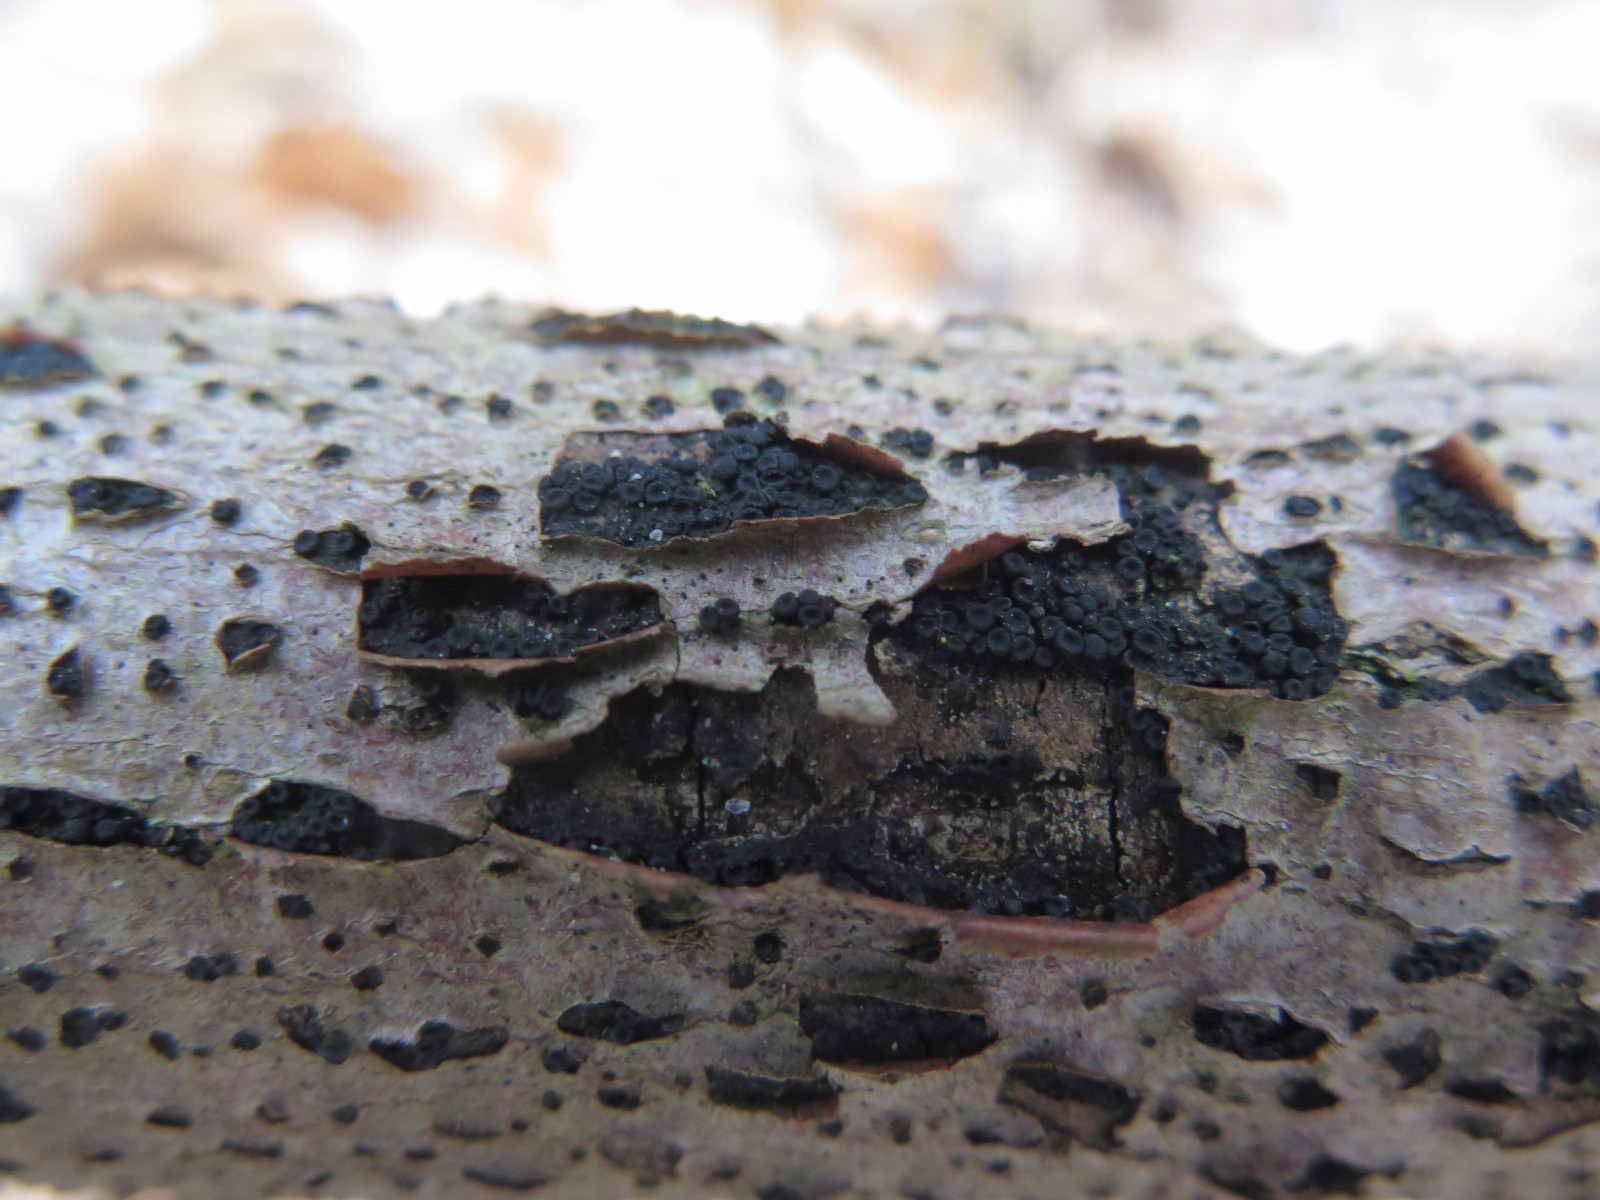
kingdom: Fungi
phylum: Ascomycota
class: Sordariomycetes
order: Coronophorales
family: Nitschkiaceae
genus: Nitschkia
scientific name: Nitschkia cupularis
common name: almindelig skålkerne
